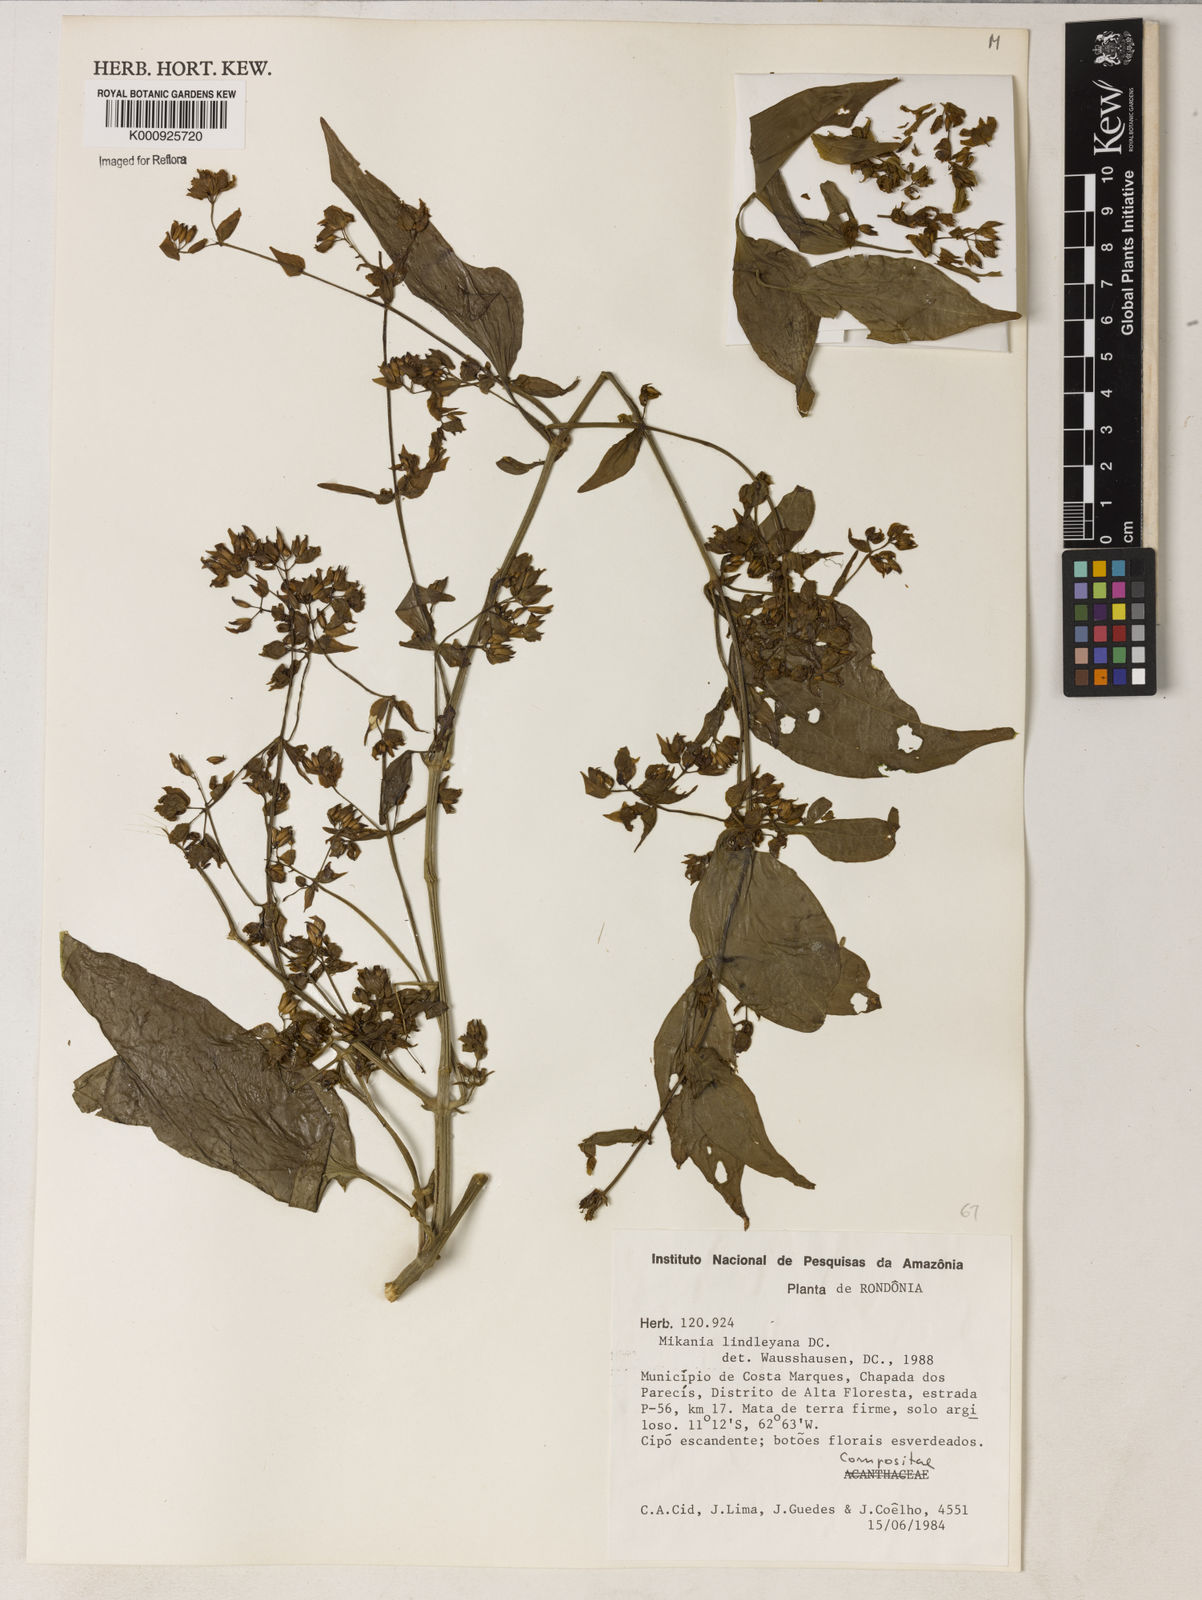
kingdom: Plantae
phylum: Tracheophyta
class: Magnoliopsida
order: Asterales
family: Asteraceae
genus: Mikania
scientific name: Mikania lindleyana
